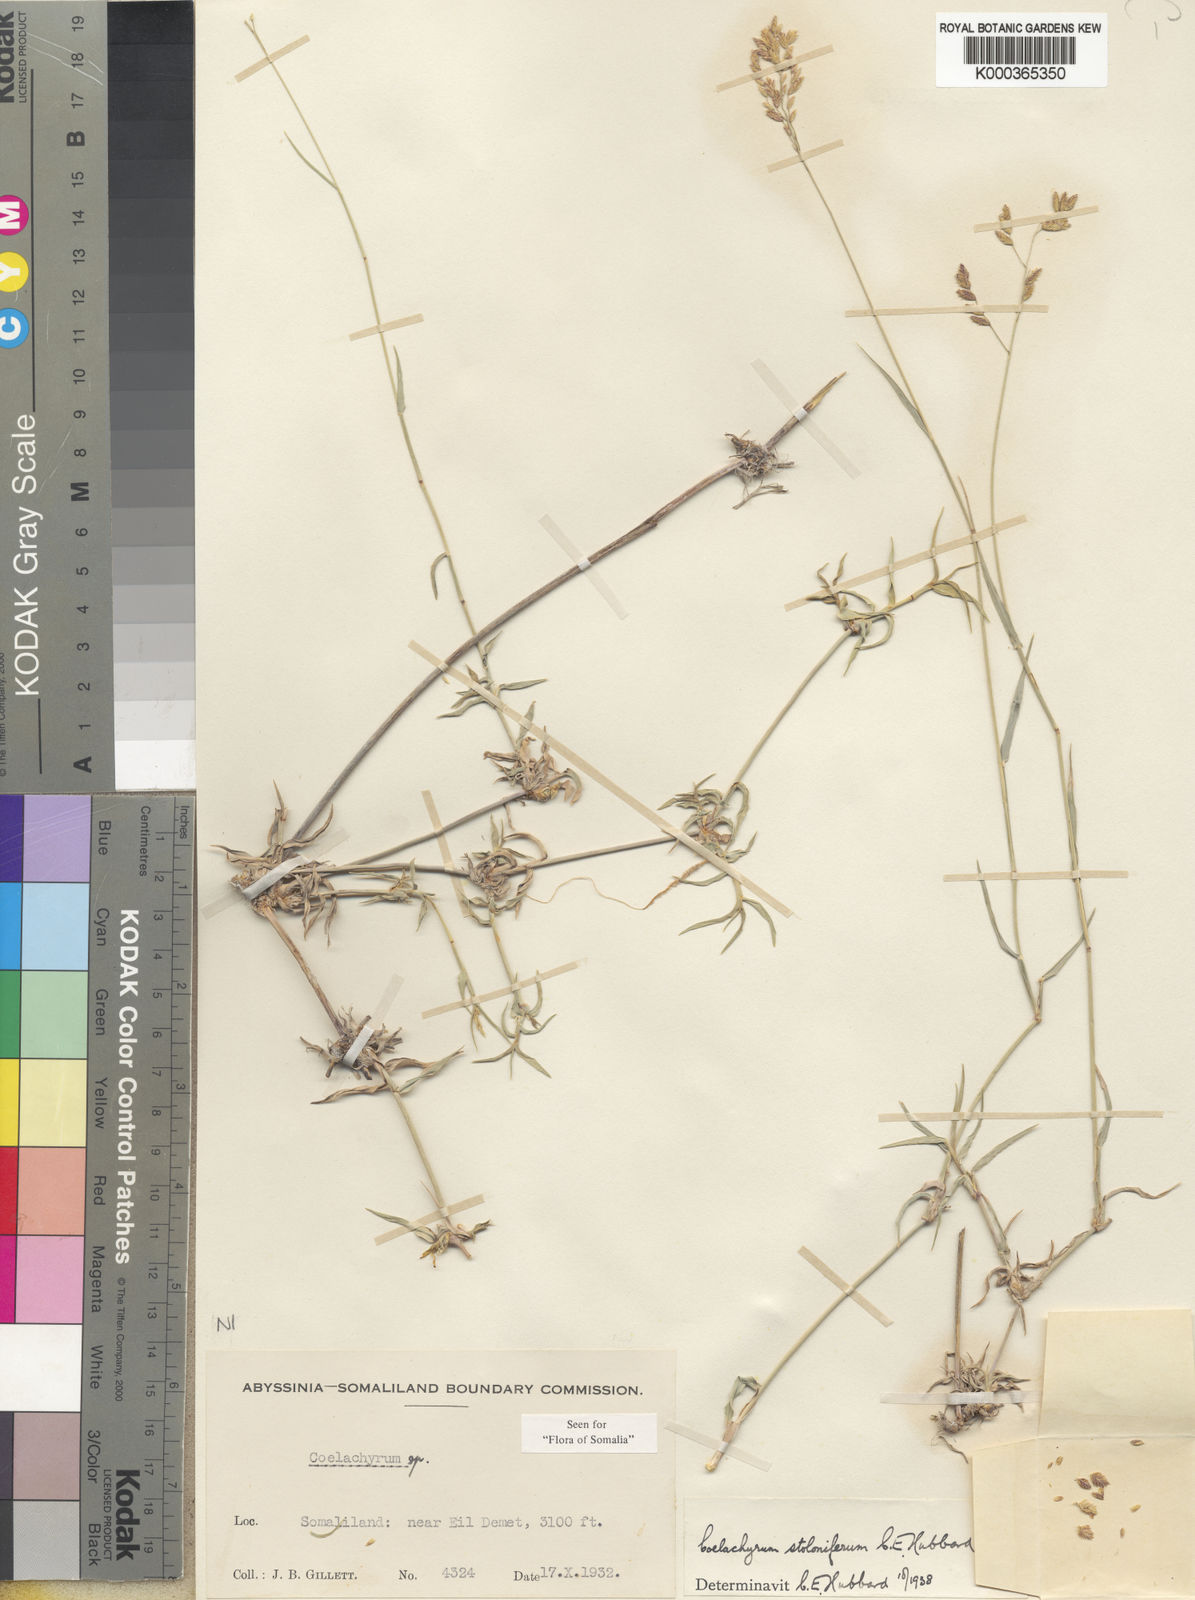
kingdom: Plantae
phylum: Tracheophyta
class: Liliopsida
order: Poales
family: Poaceae
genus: Coelachyrum
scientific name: Coelachyrum piercei
